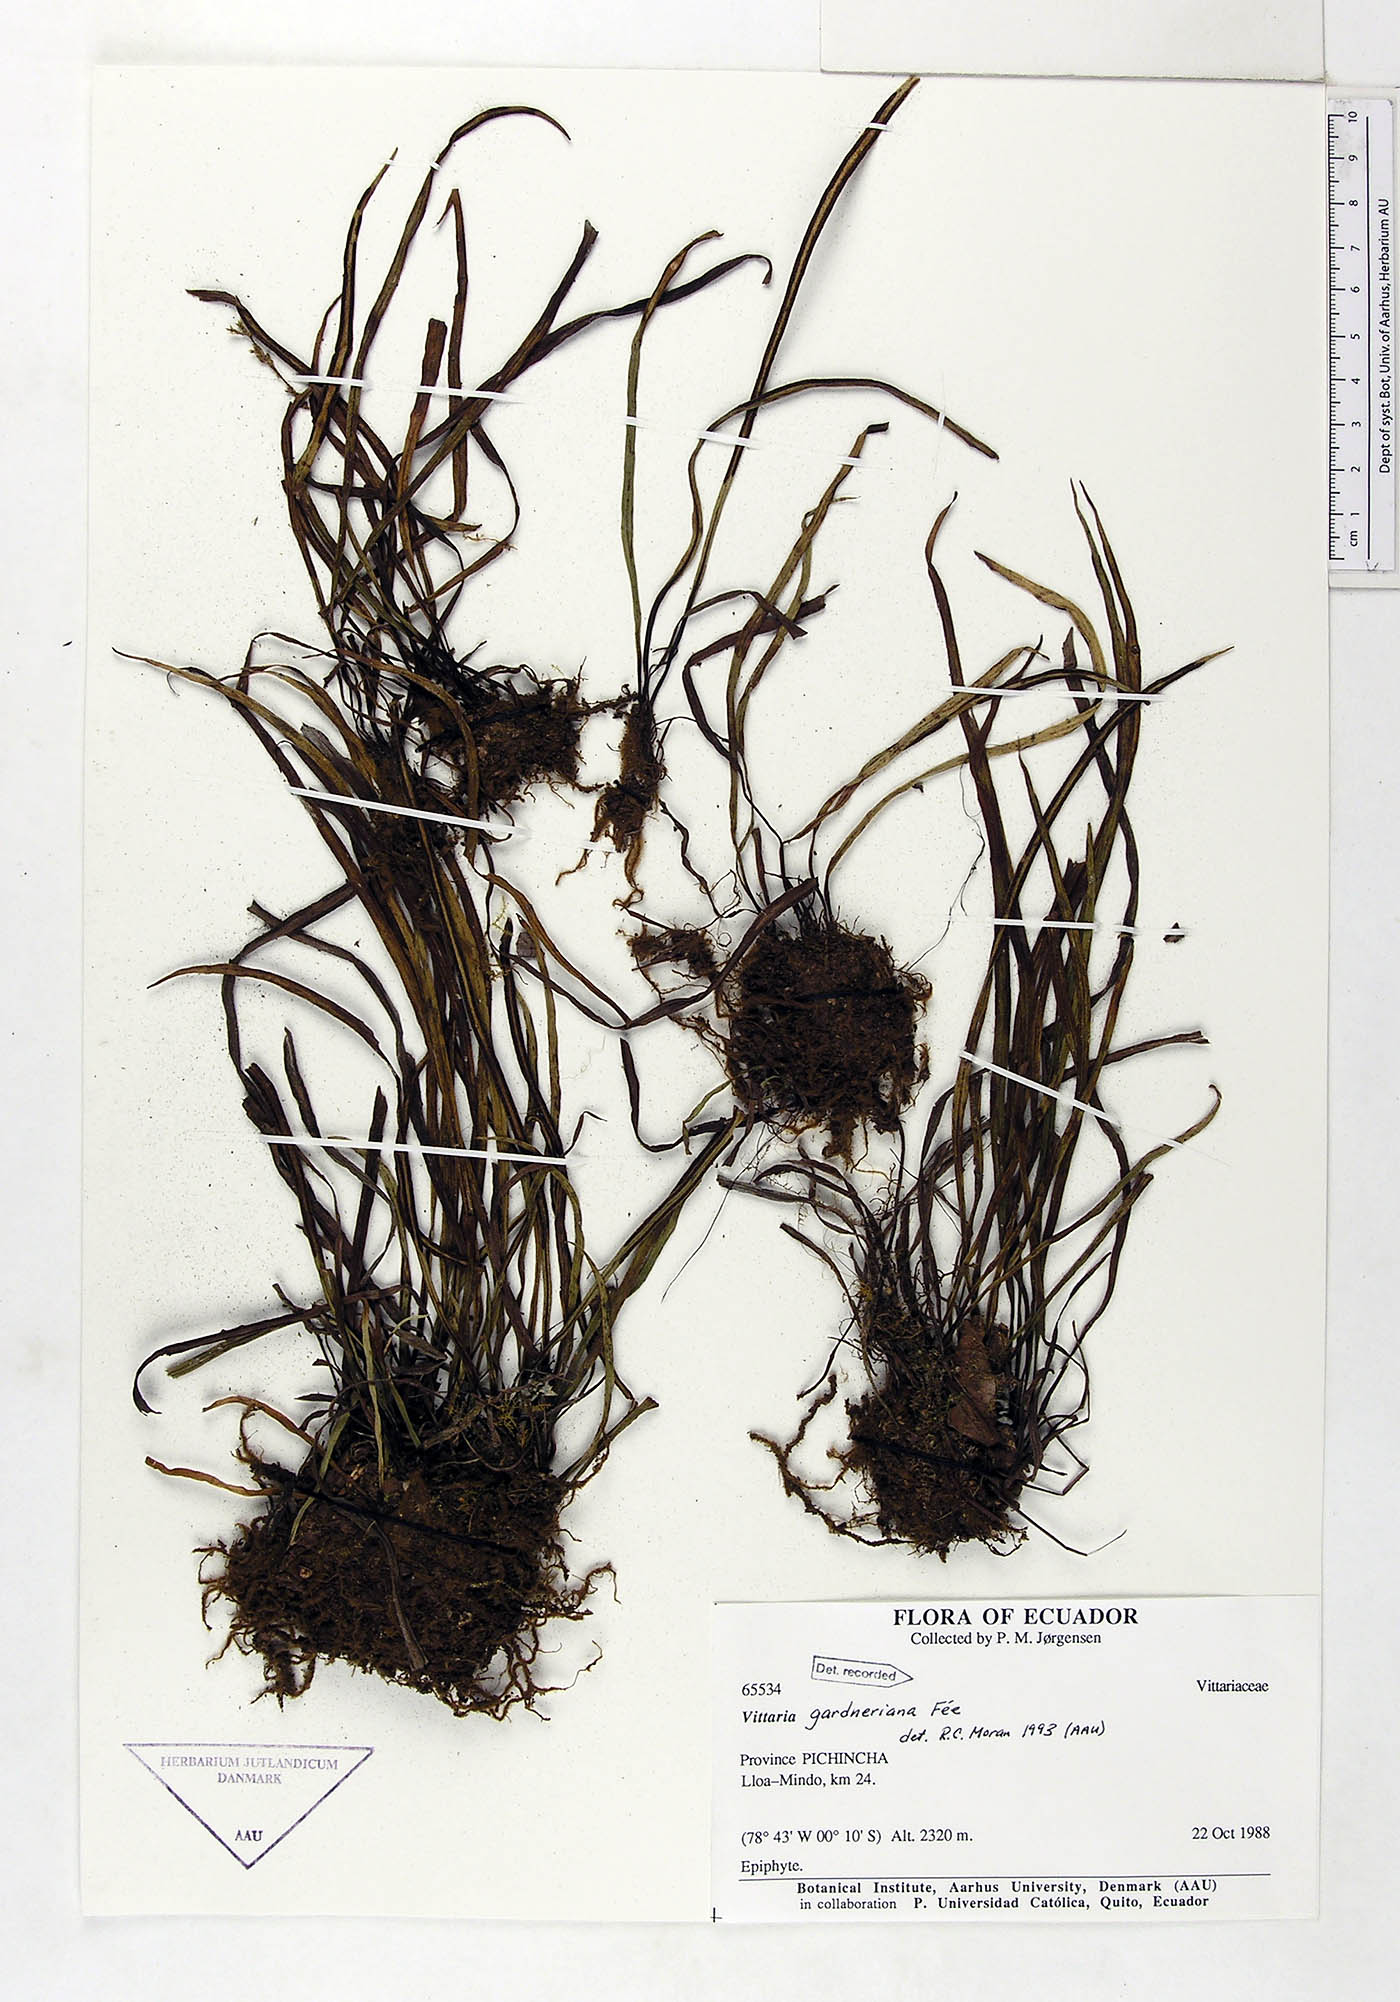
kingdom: Plantae
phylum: Tracheophyta
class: Polypodiopsida
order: Polypodiales
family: Pteridaceae
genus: Radiovittaria
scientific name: Radiovittaria gardneriana
